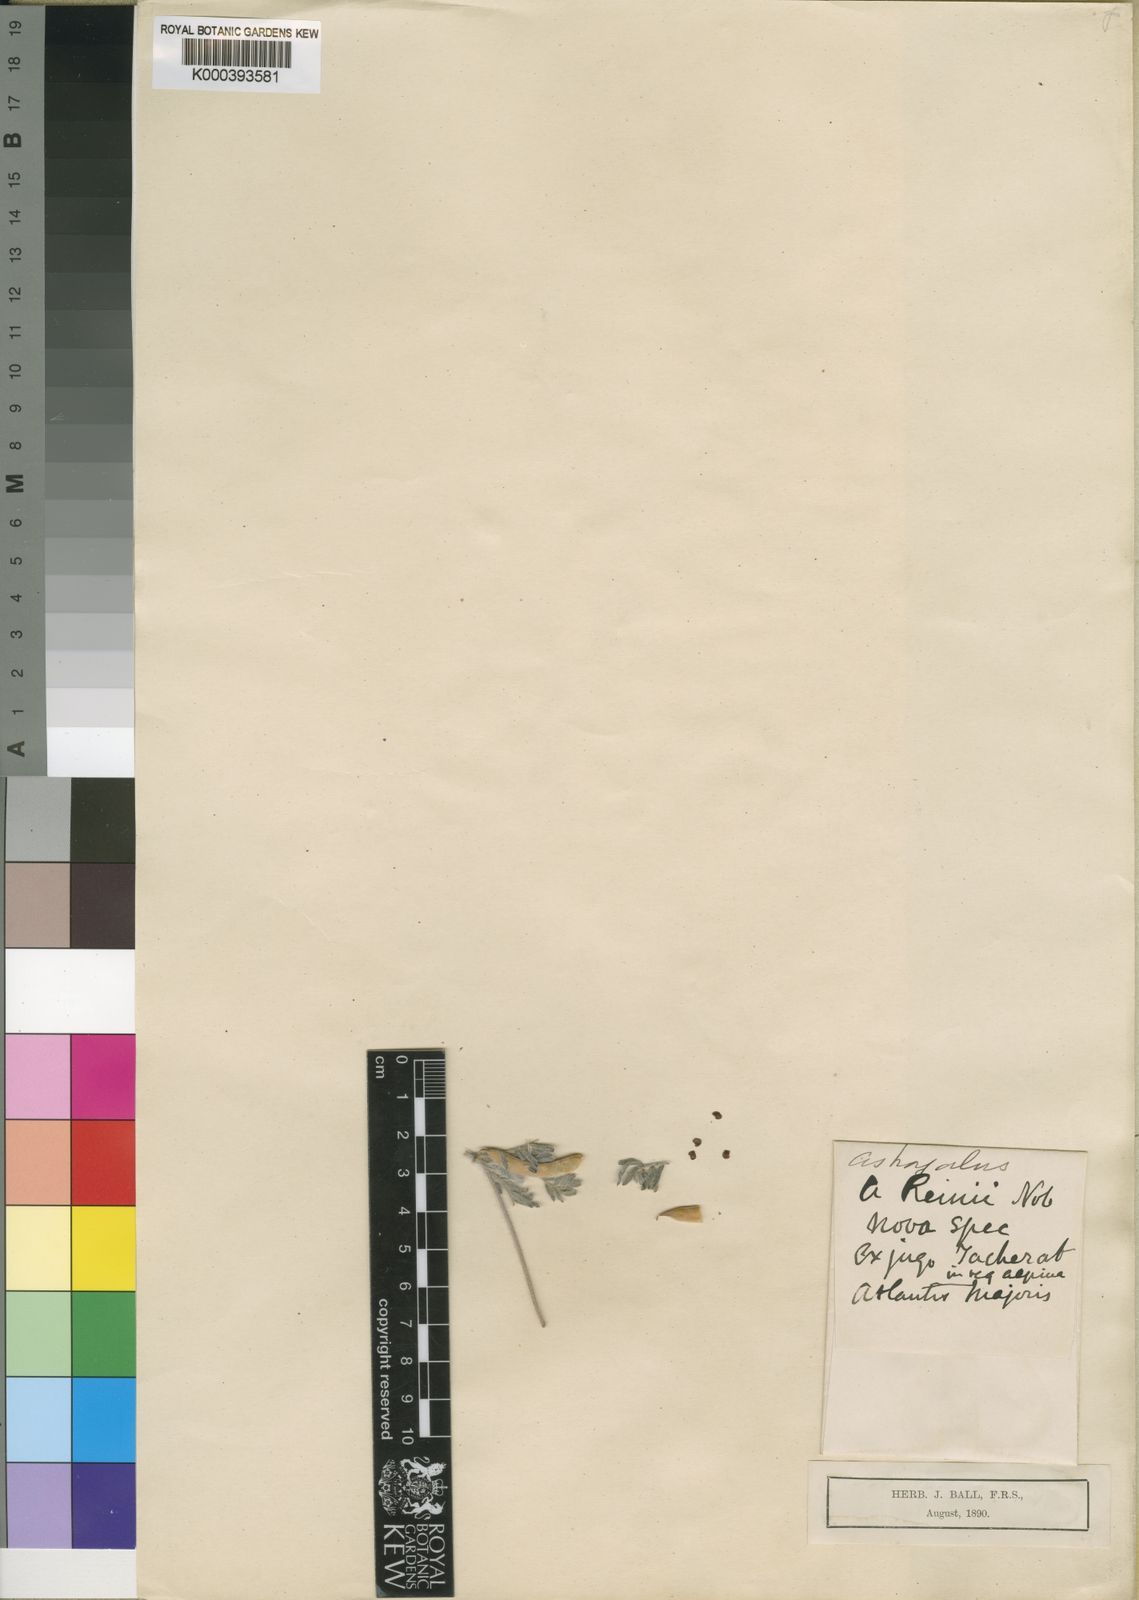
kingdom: Plantae
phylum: Tracheophyta
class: Magnoliopsida
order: Fabales
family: Fabaceae
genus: Astragalus
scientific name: Astragalus reinii
